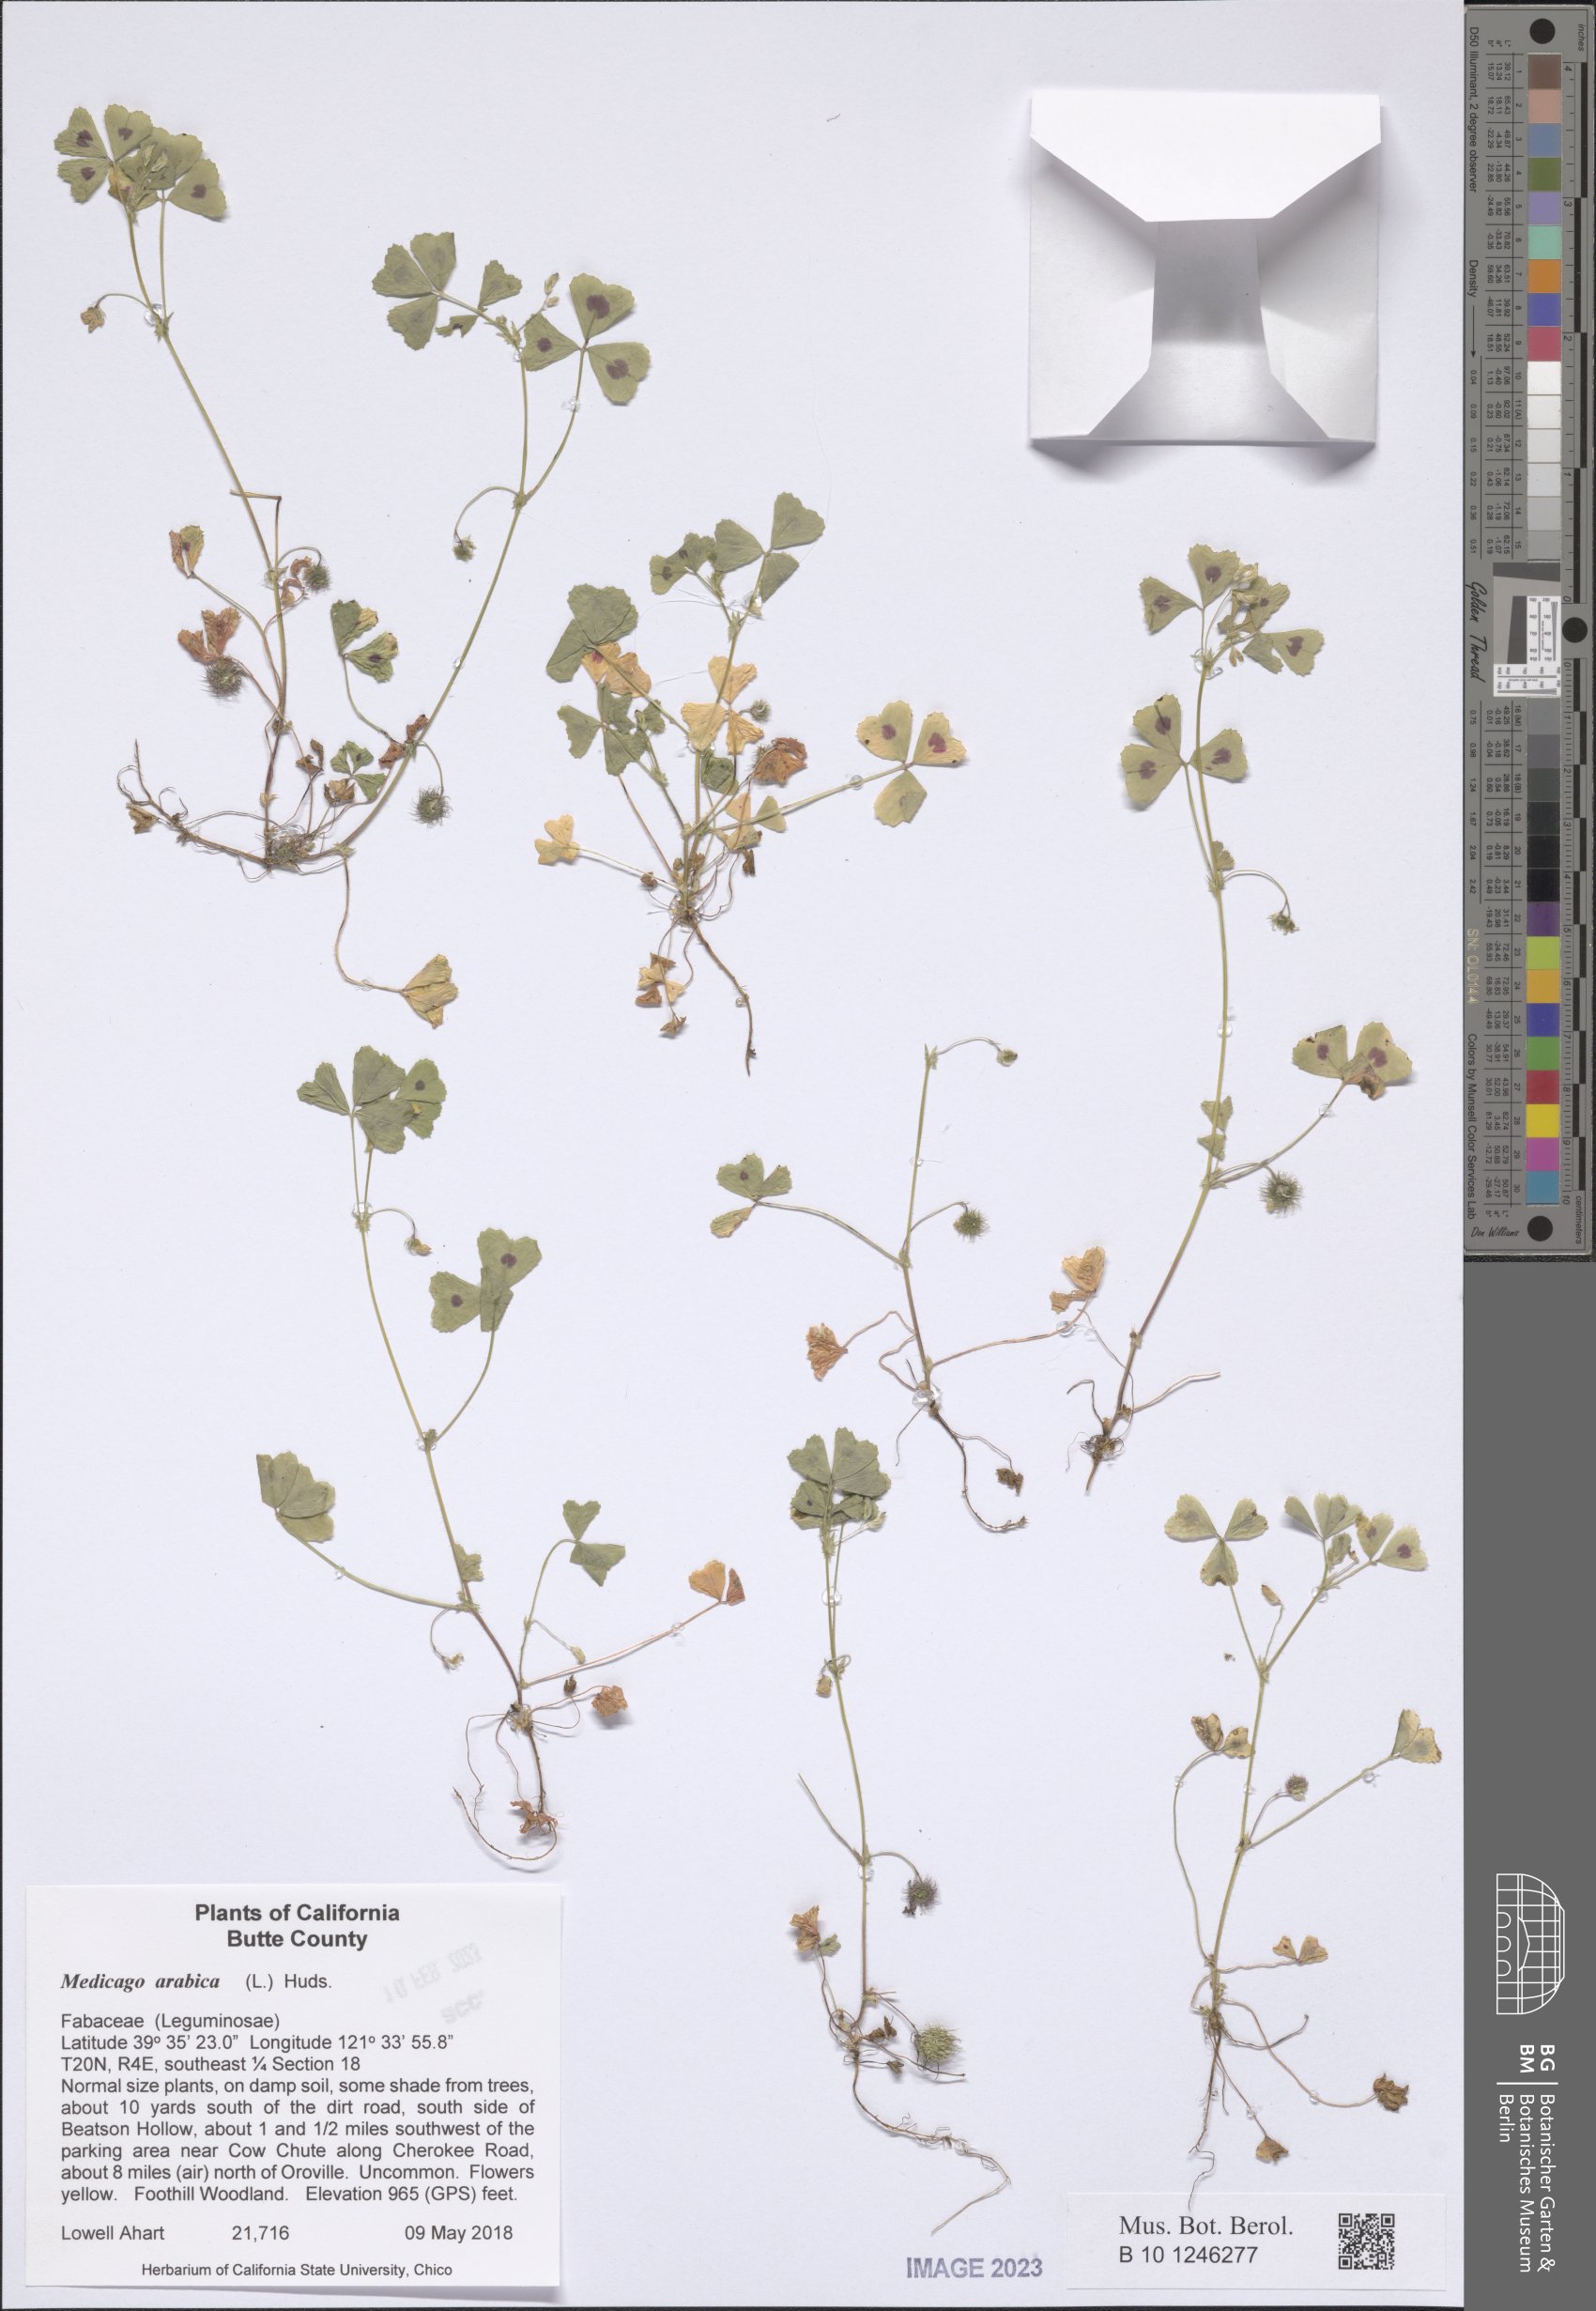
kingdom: Plantae
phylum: Tracheophyta
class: Magnoliopsida
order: Fabales
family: Fabaceae
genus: Medicago
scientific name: Medicago arabica
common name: Spotted medick
